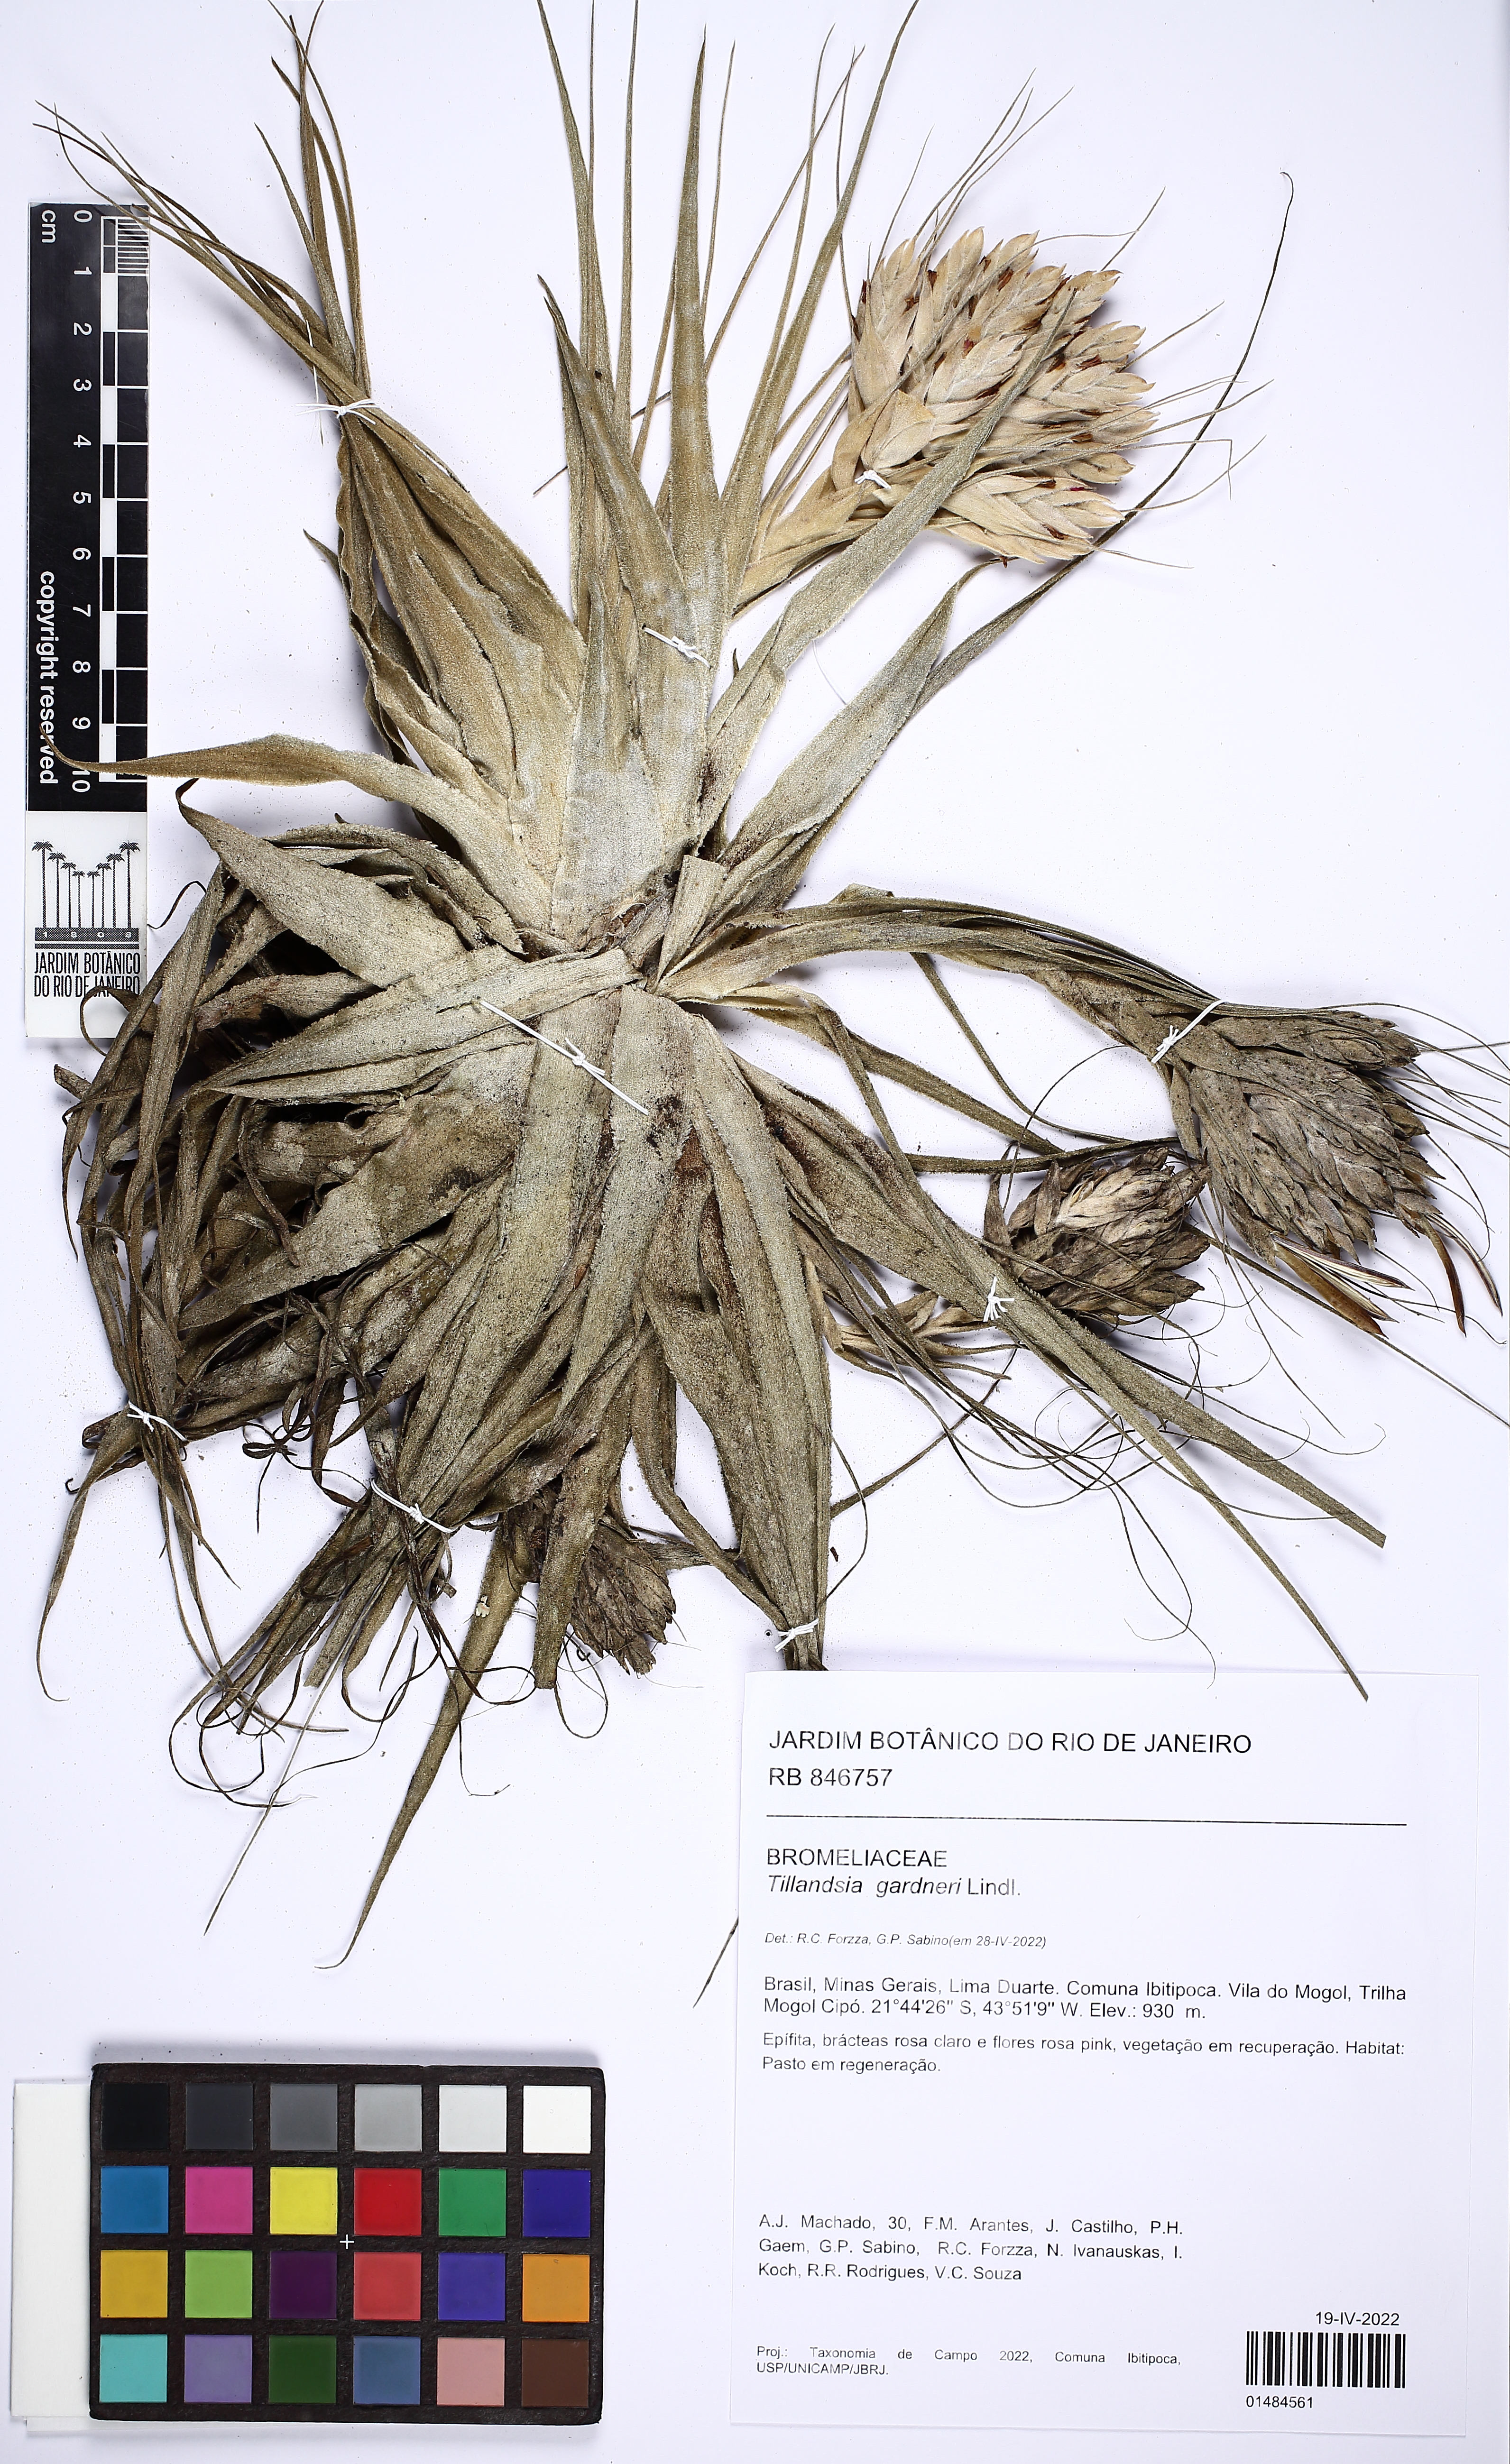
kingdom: Plantae
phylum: Tracheophyta
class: Liliopsida
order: Poales
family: Bromeliaceae
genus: Tillandsia
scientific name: Tillandsia gardneri
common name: Airplant
